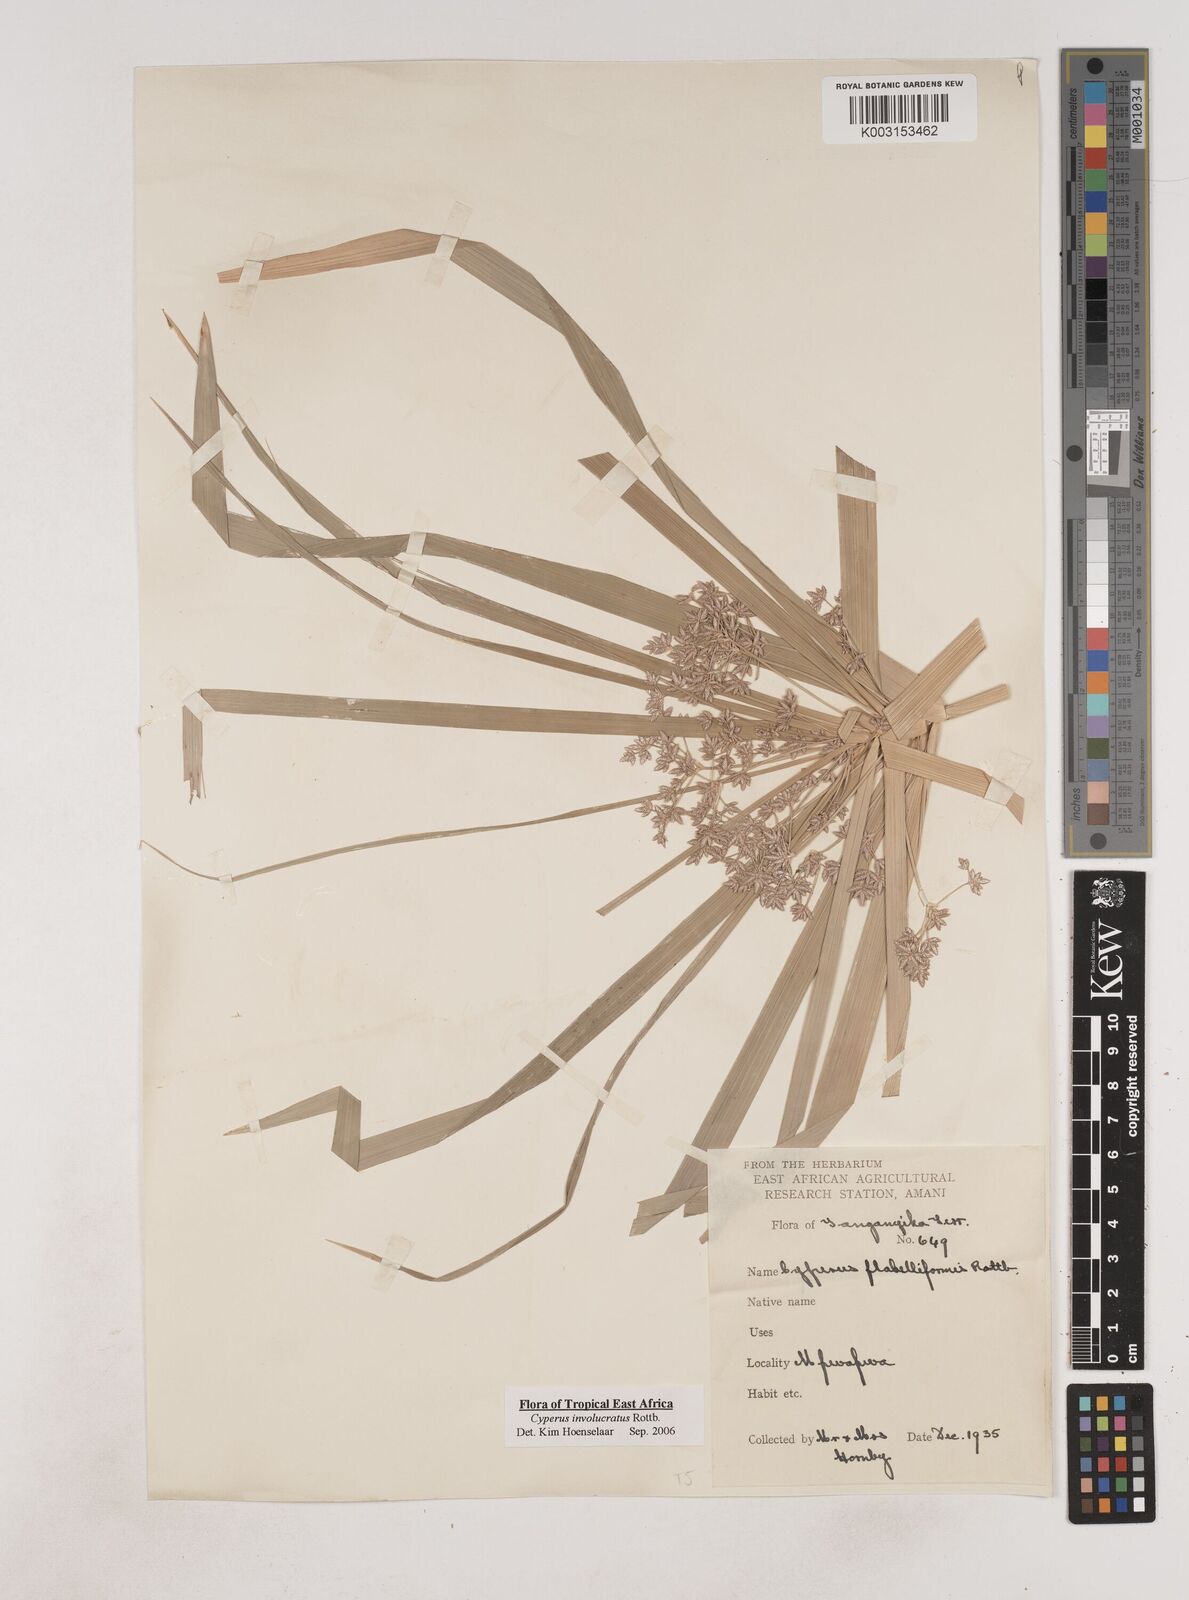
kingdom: Plantae
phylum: Tracheophyta
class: Liliopsida
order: Poales
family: Cyperaceae
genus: Cyperus
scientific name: Cyperus alternifolius
